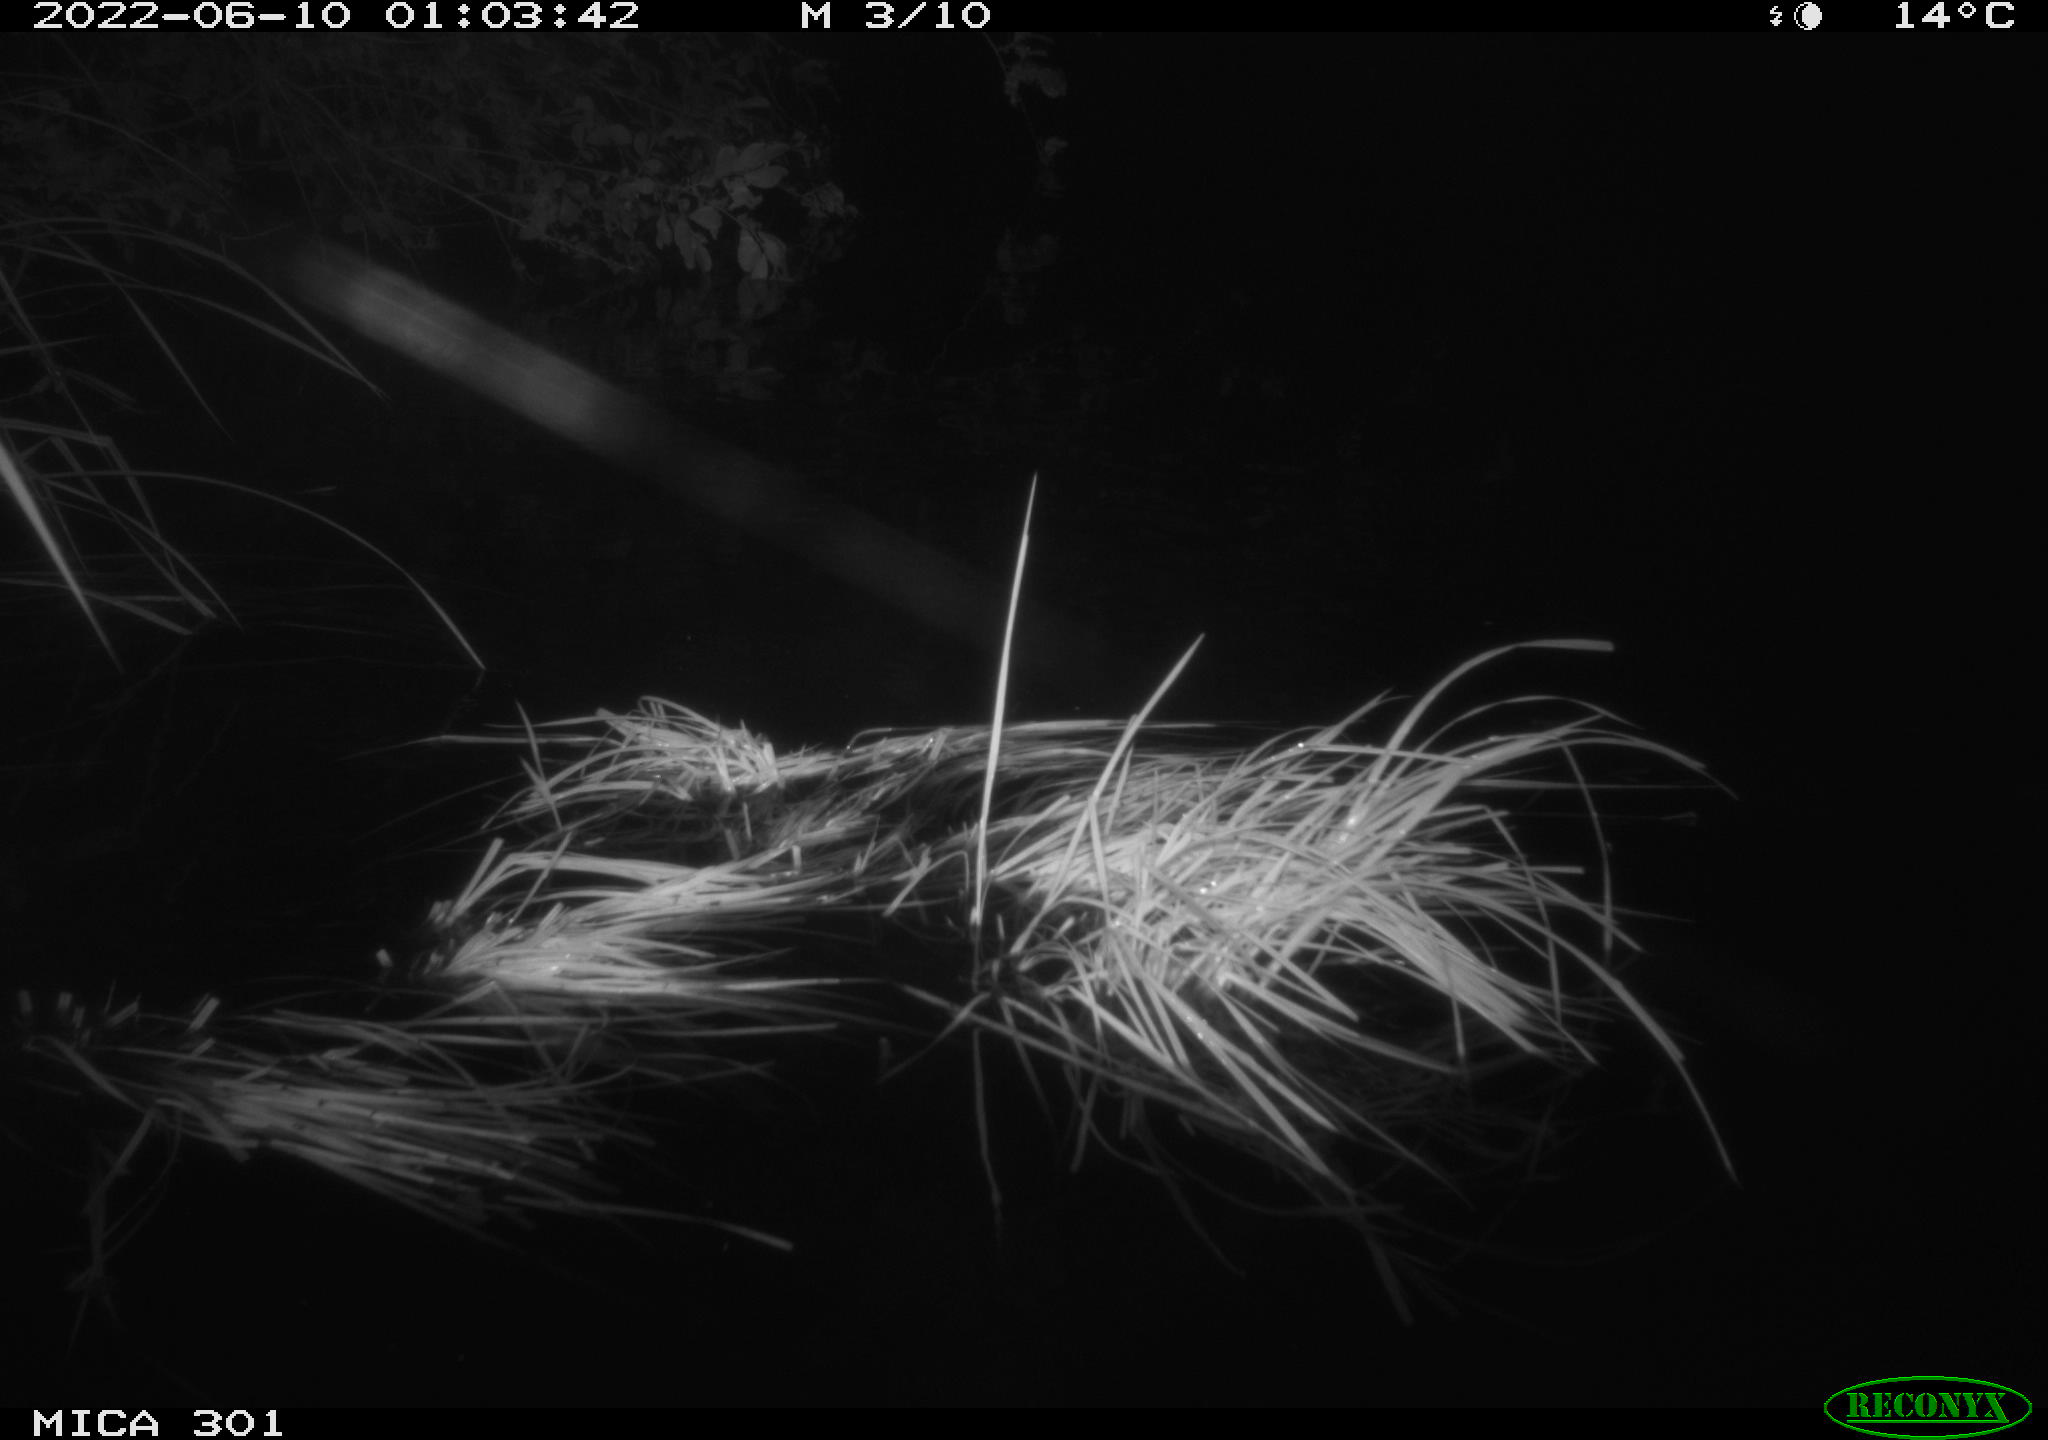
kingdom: Animalia
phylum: Chordata
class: Mammalia
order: Rodentia
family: Castoridae
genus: Castor
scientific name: Castor fiber
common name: Eurasian beaver
